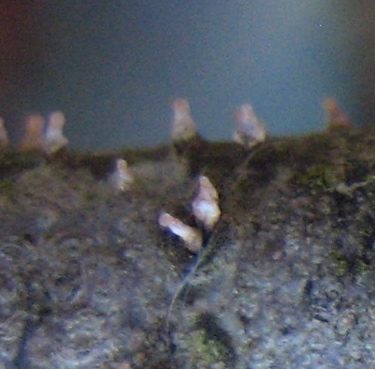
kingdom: Fungi
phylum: Ascomycota
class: Leotiomycetes
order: Helotiales
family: Dermateaceae
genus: Dermea
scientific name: Dermea cerasi
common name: kirsebær-klyngeskive
